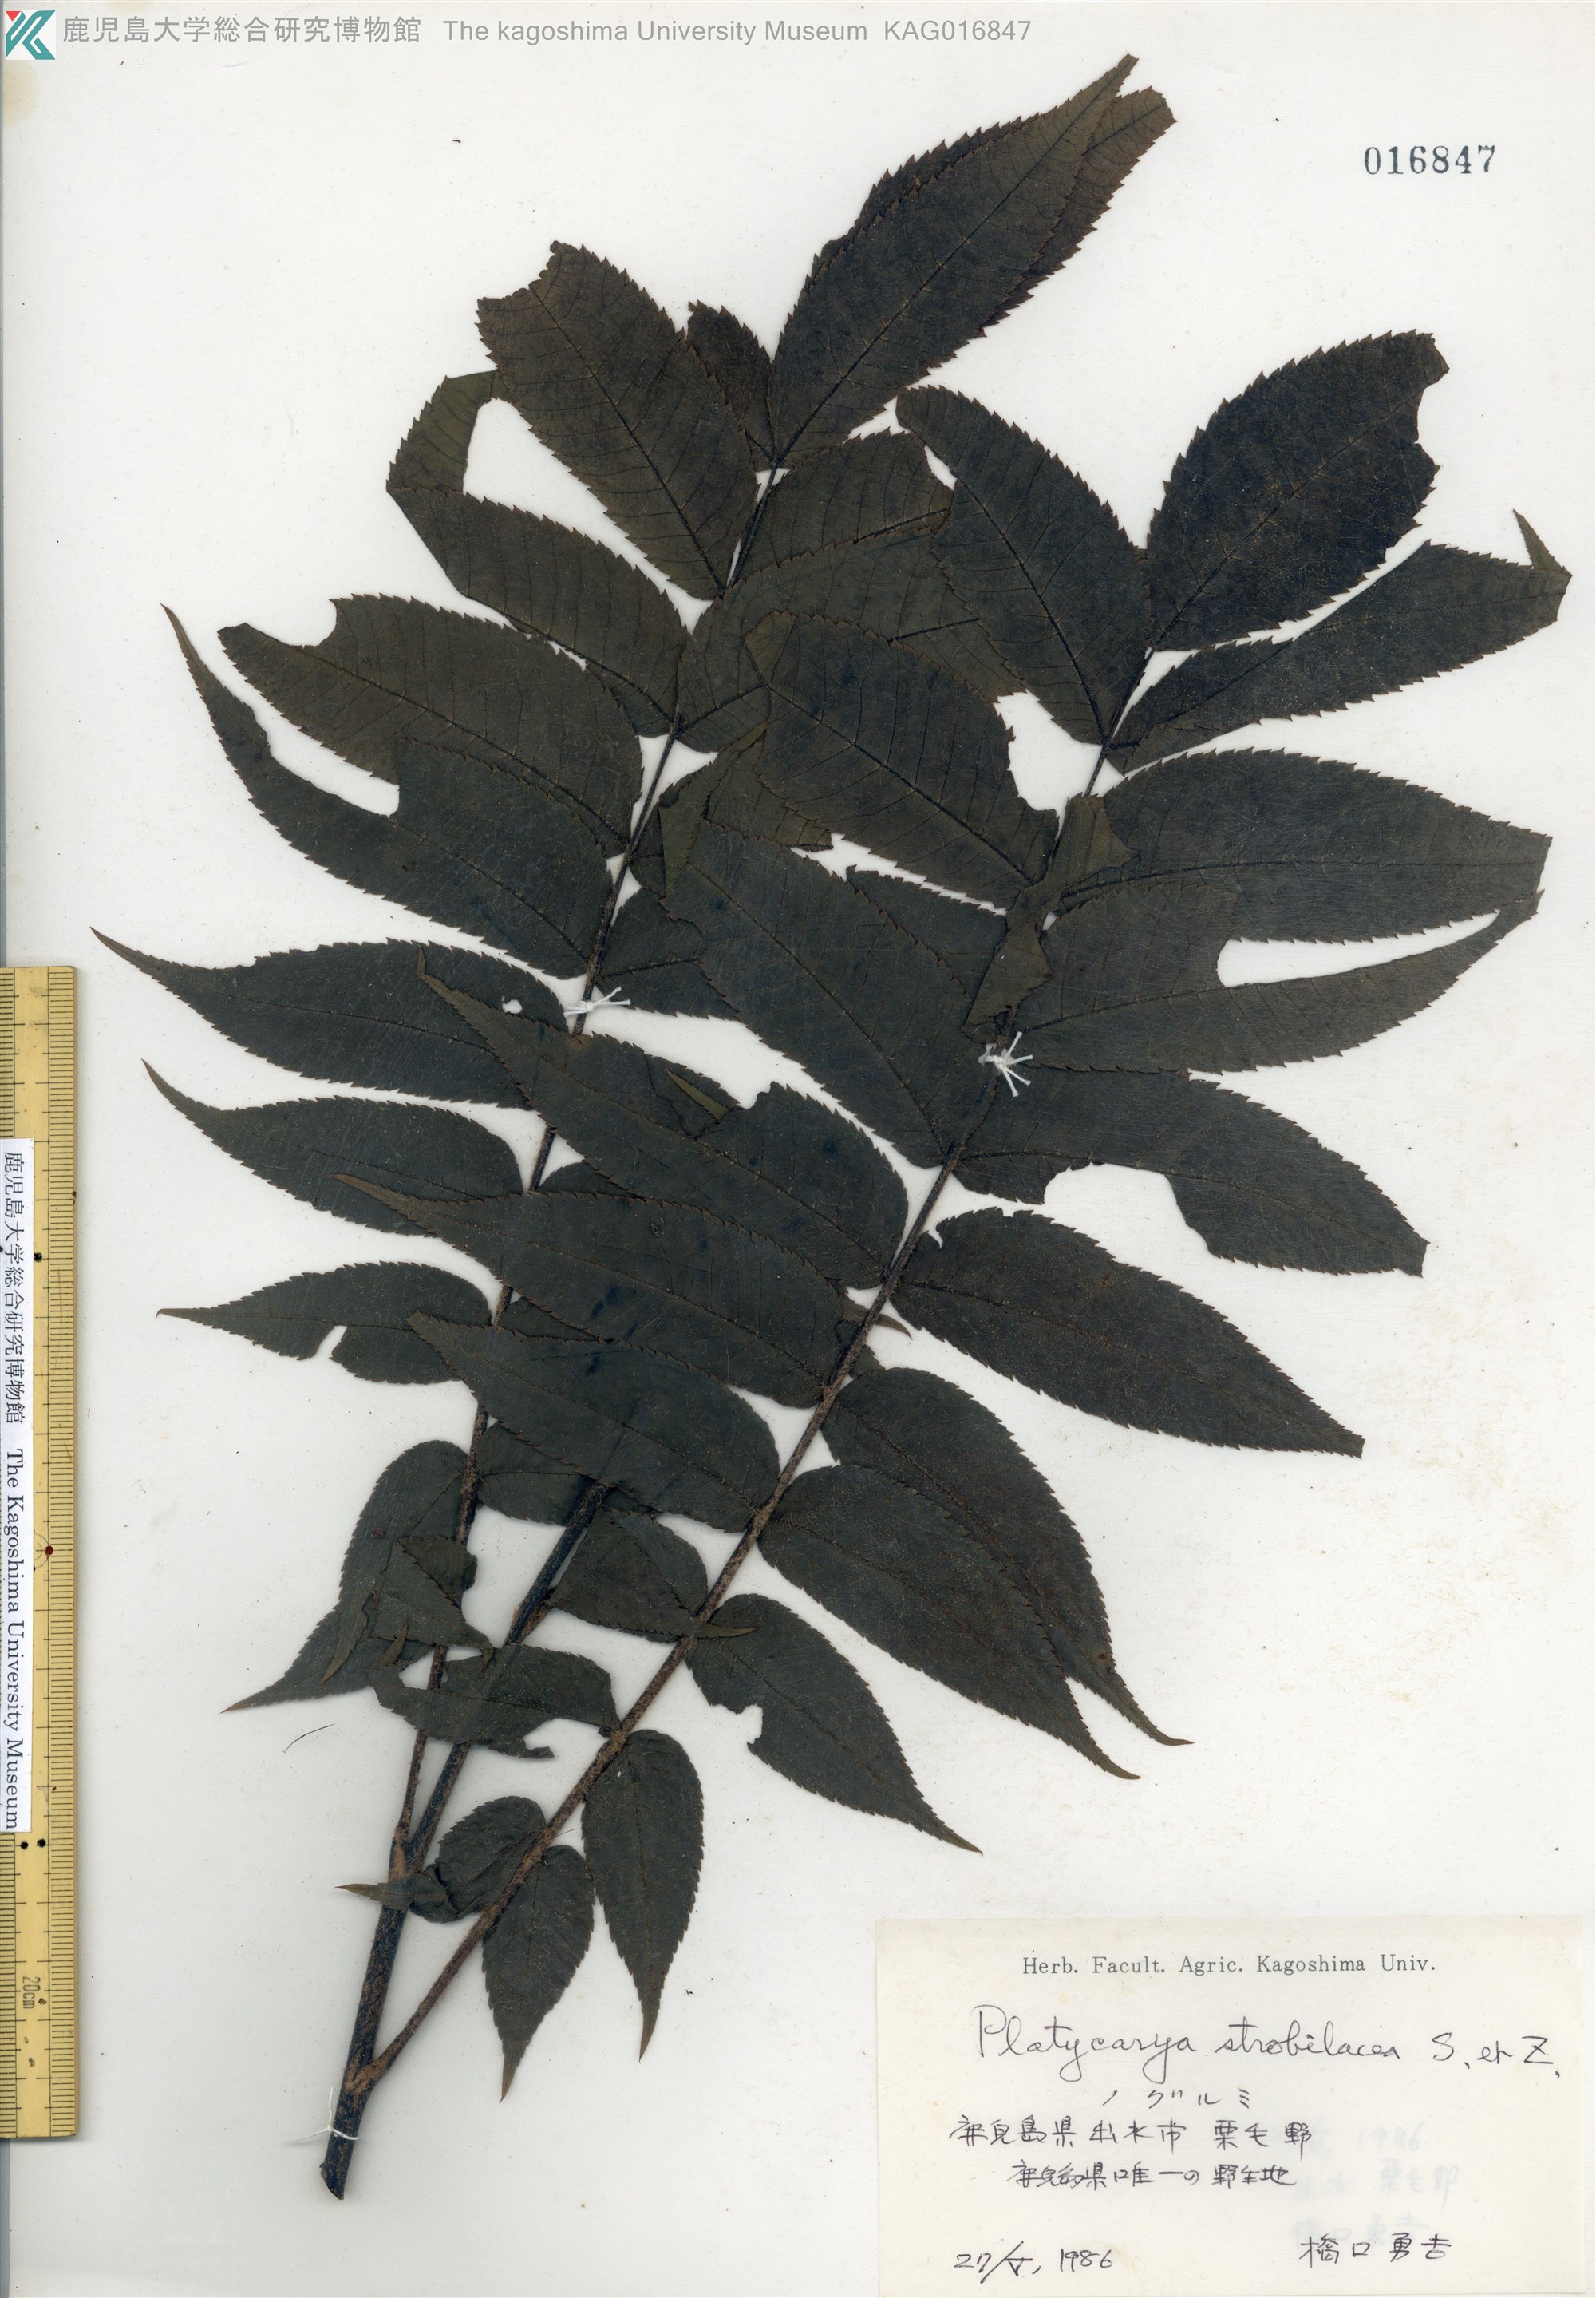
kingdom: Plantae
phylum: Tracheophyta
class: Magnoliopsida
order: Fagales
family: Juglandaceae
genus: Platycarya
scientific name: Platycarya strobilacea
